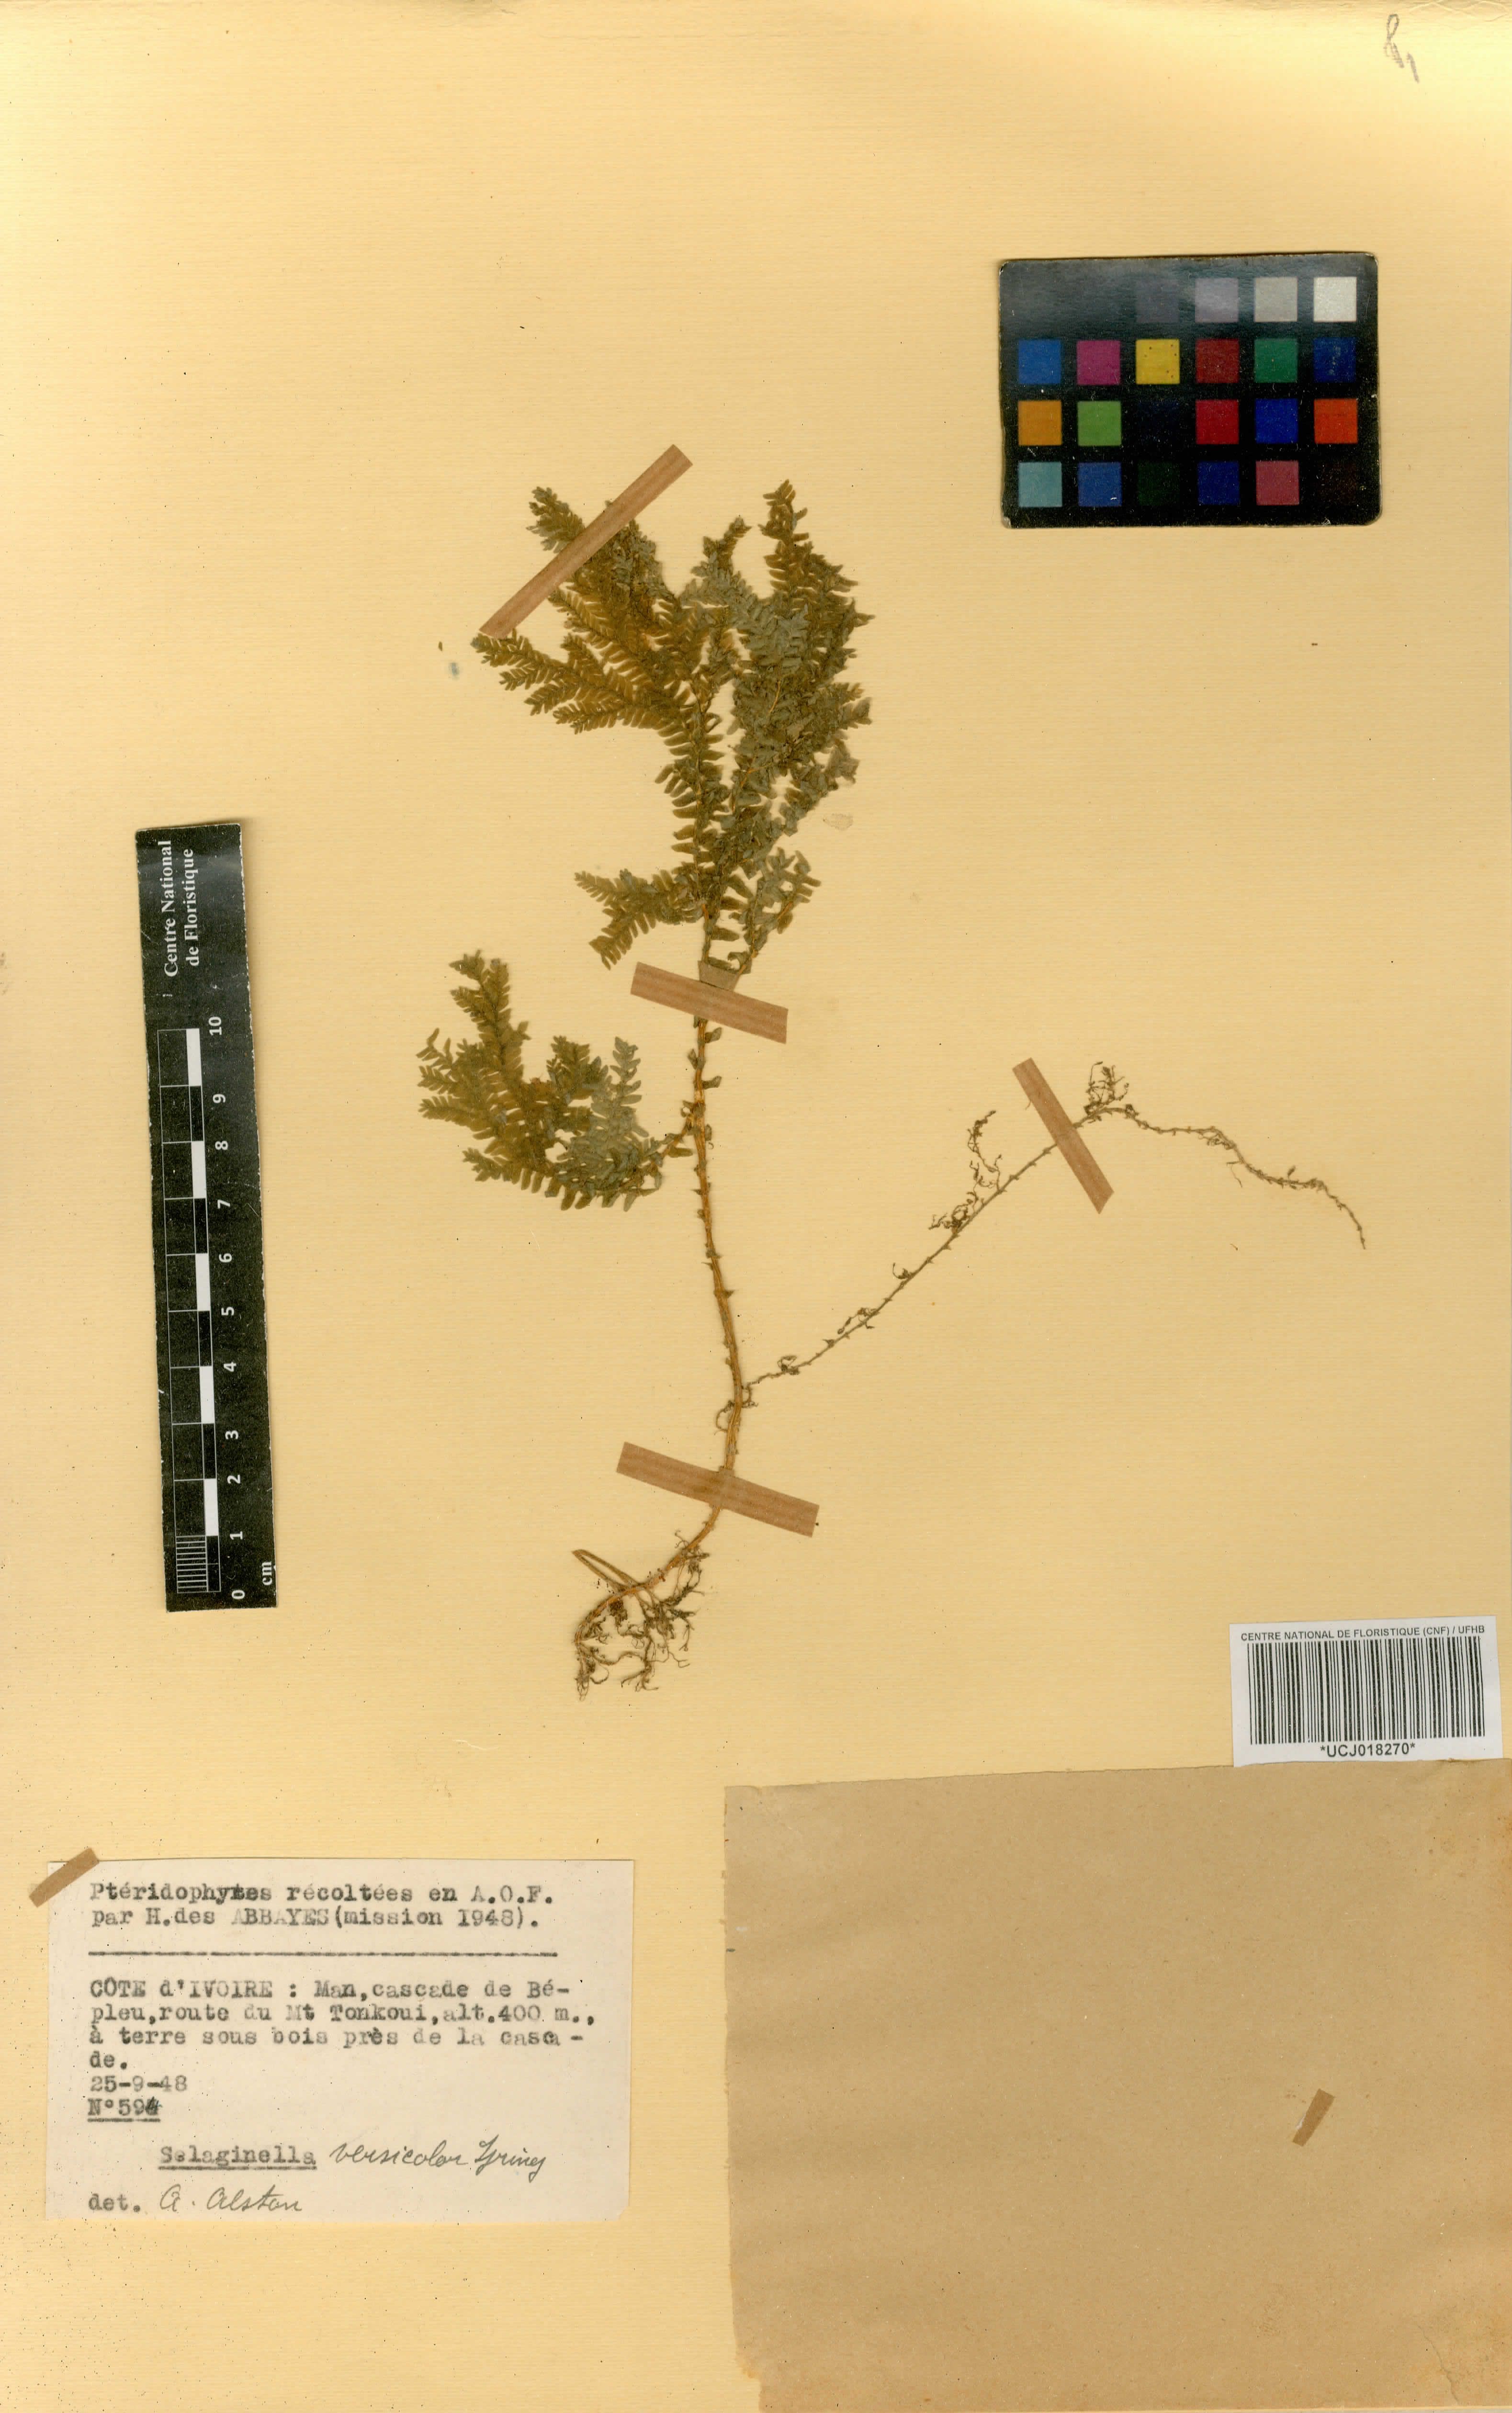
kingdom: Plantae
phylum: Tracheophyta
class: Lycopodiopsida
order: Selaginellales
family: Selaginellaceae
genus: Selaginella
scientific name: Selaginella versicolor
